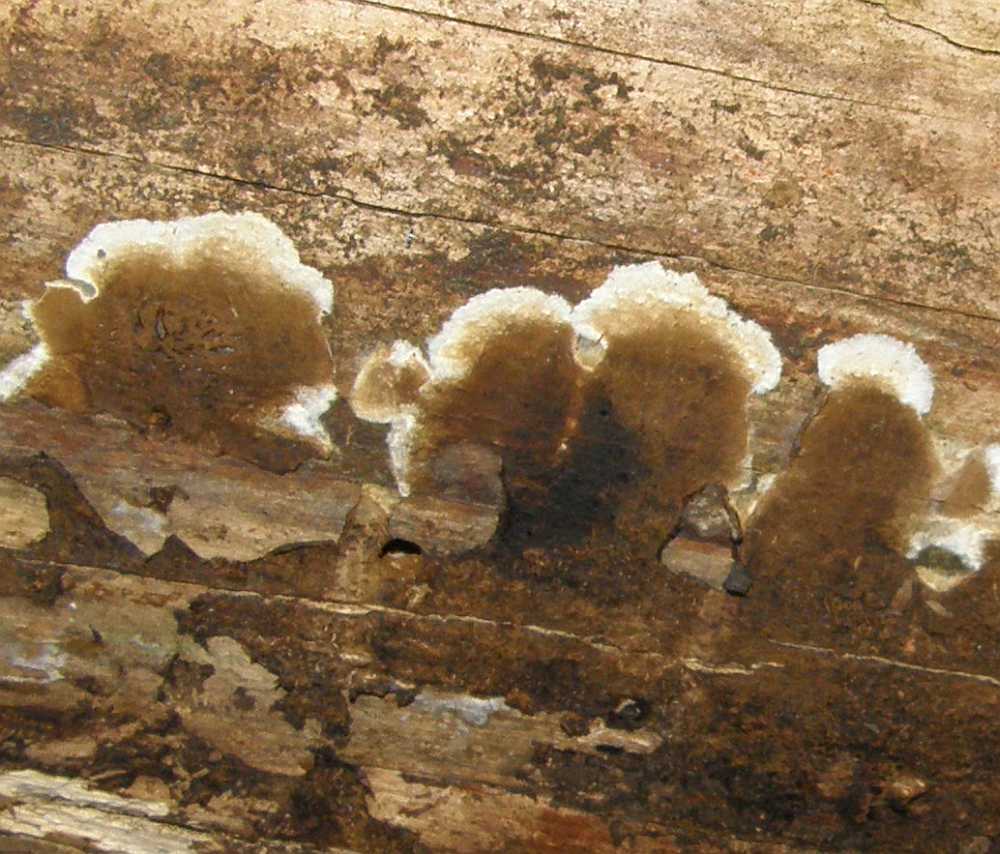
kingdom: Fungi
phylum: Basidiomycota
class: Agaricomycetes
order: Boletales
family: Coniophoraceae
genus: Coniophora
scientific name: Coniophora puteana
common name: gul tømmersvamp
